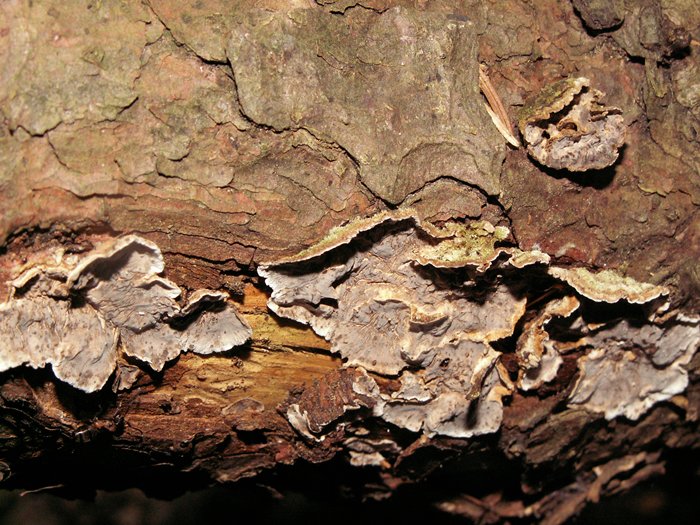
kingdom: Fungi
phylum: Basidiomycota
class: Agaricomycetes
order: Russulales
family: Stereaceae
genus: Stereum
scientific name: Stereum sanguinolentum
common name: blødende lædersvamp
